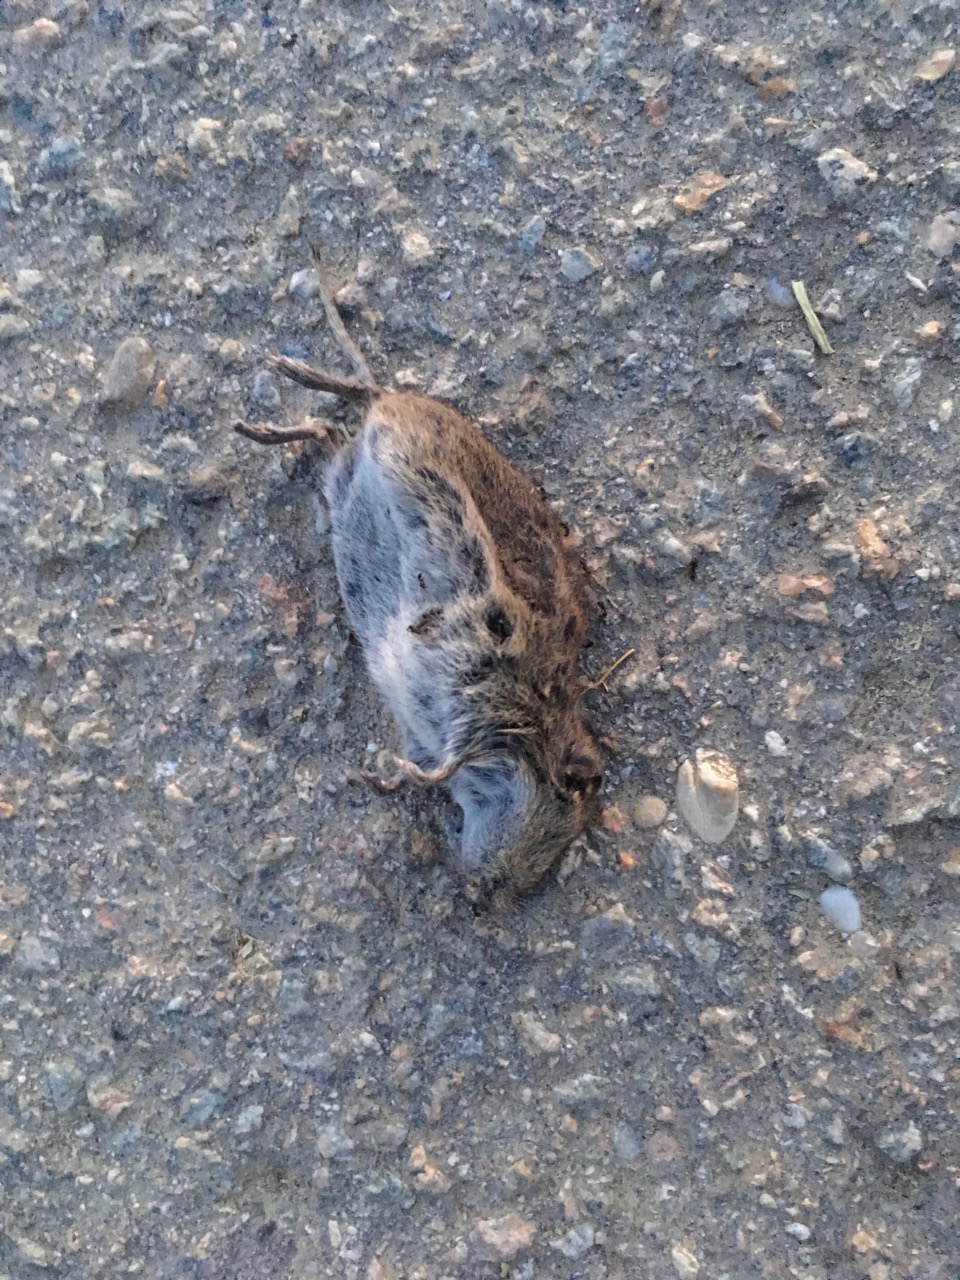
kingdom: Animalia
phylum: Chordata
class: Mammalia
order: Rodentia
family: Cricetidae
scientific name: Cricetidae
